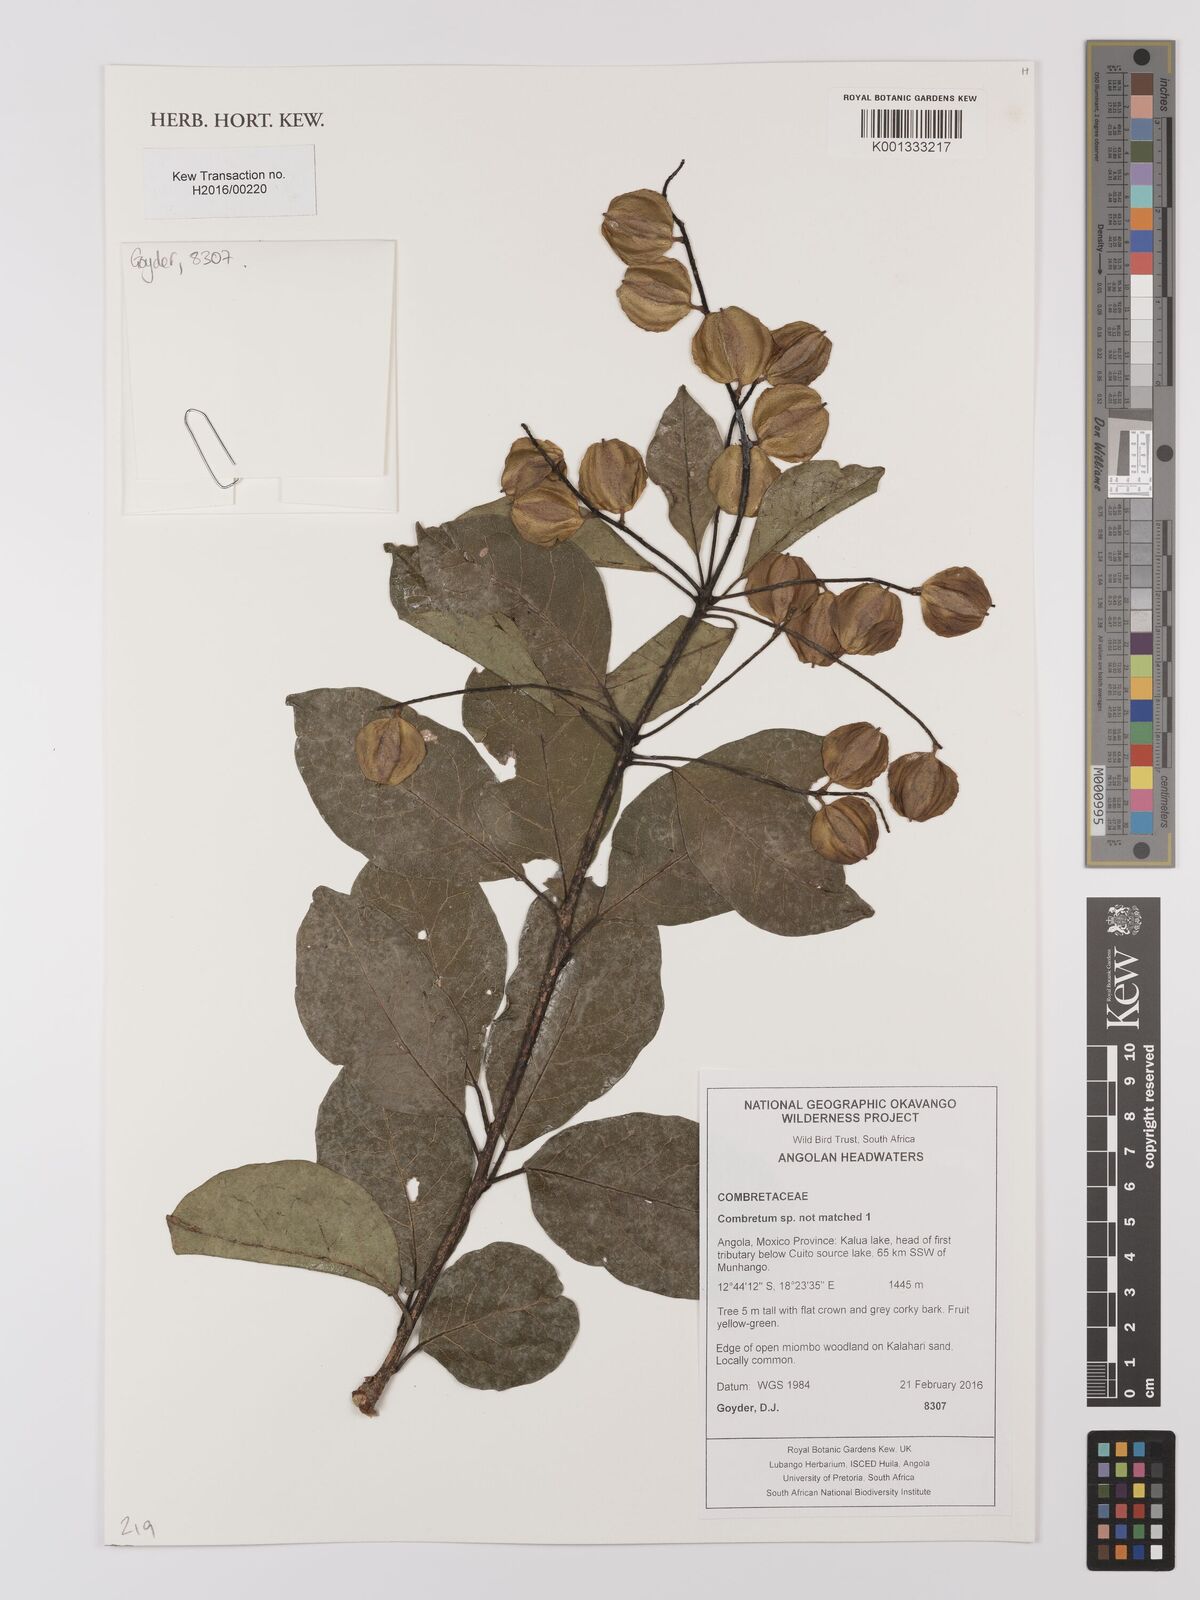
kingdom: Plantae
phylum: Tracheophyta
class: Magnoliopsida
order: Myrtales
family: Combretaceae
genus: Combretum
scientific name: Combretum
